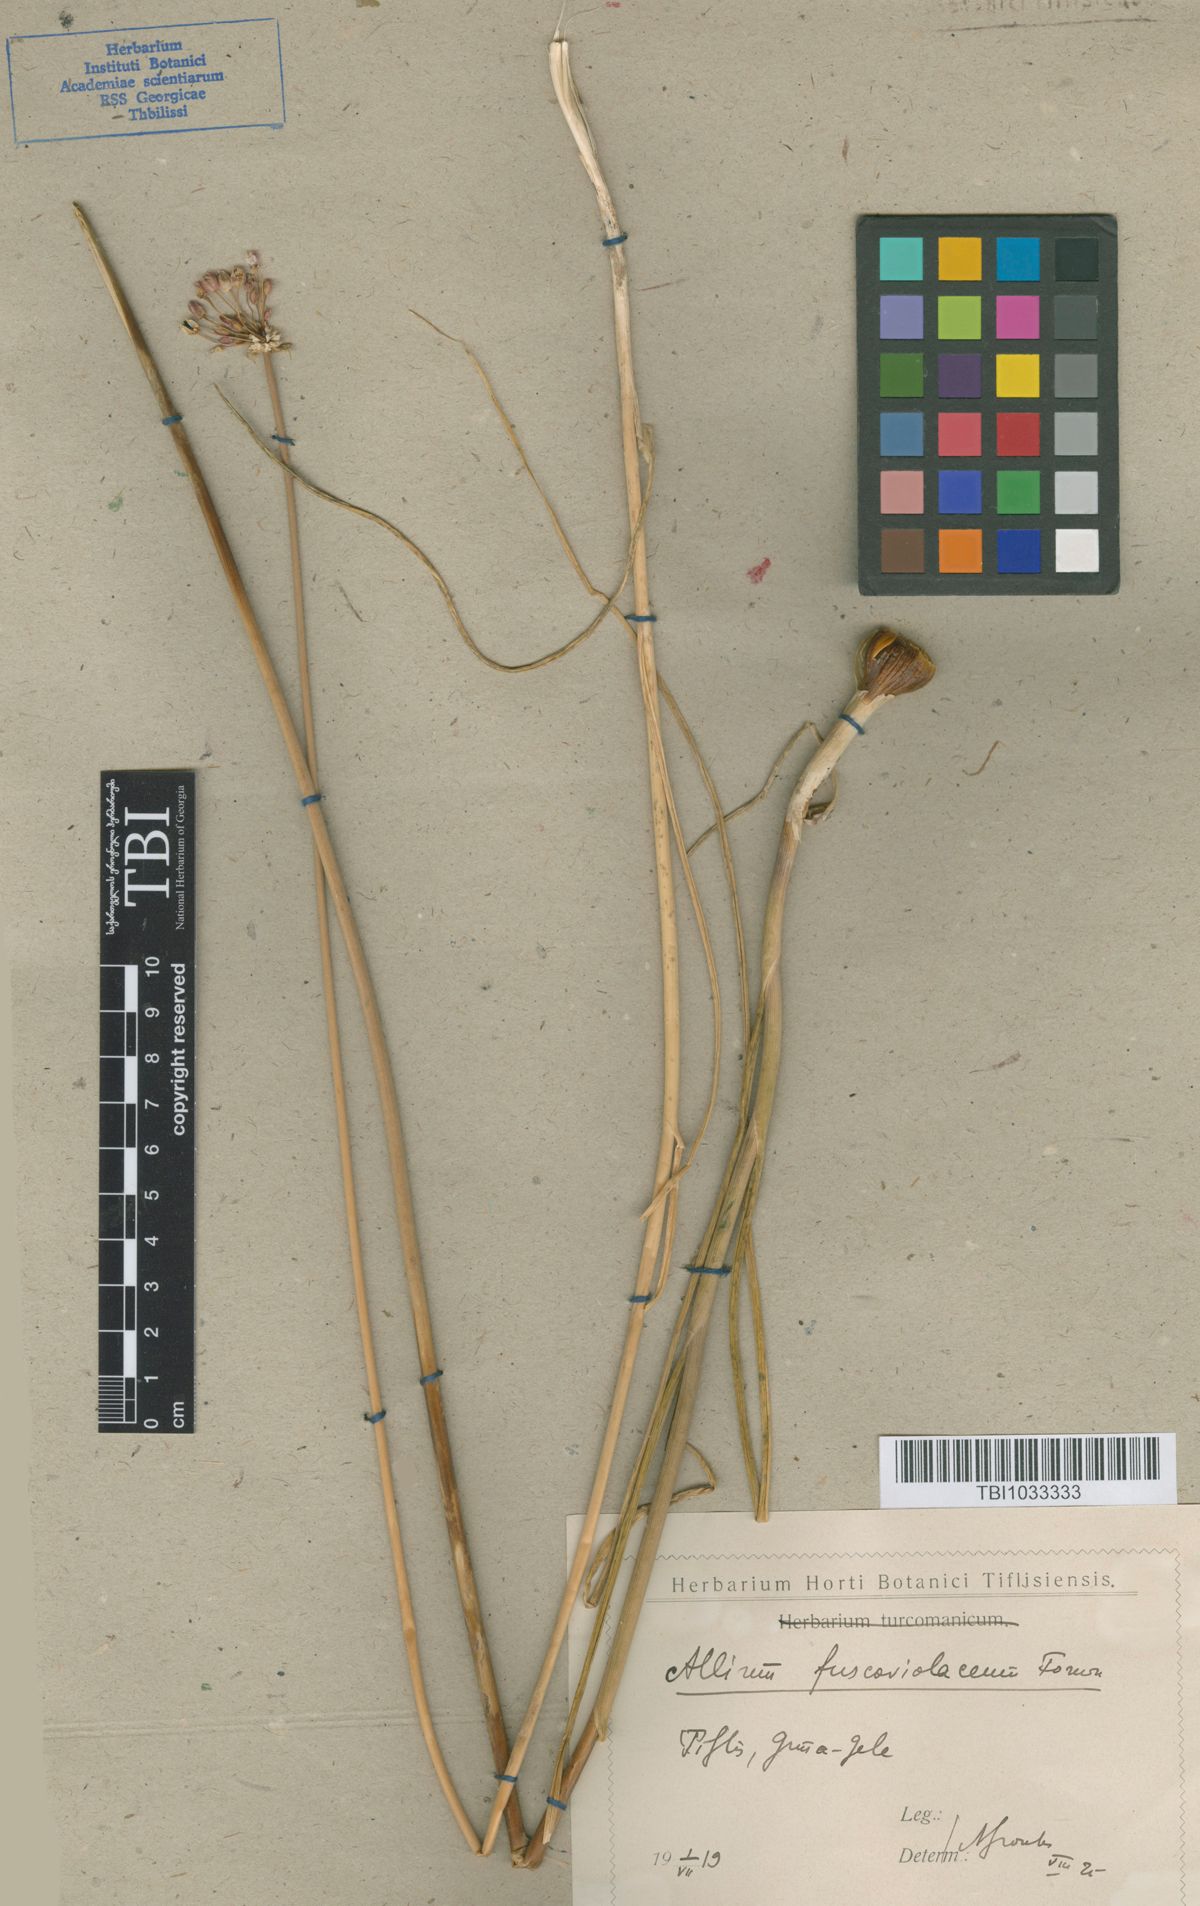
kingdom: Plantae
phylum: Tracheophyta
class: Liliopsida
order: Asparagales
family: Amaryllidaceae
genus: Allium
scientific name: Allium fuscoviolaceum
